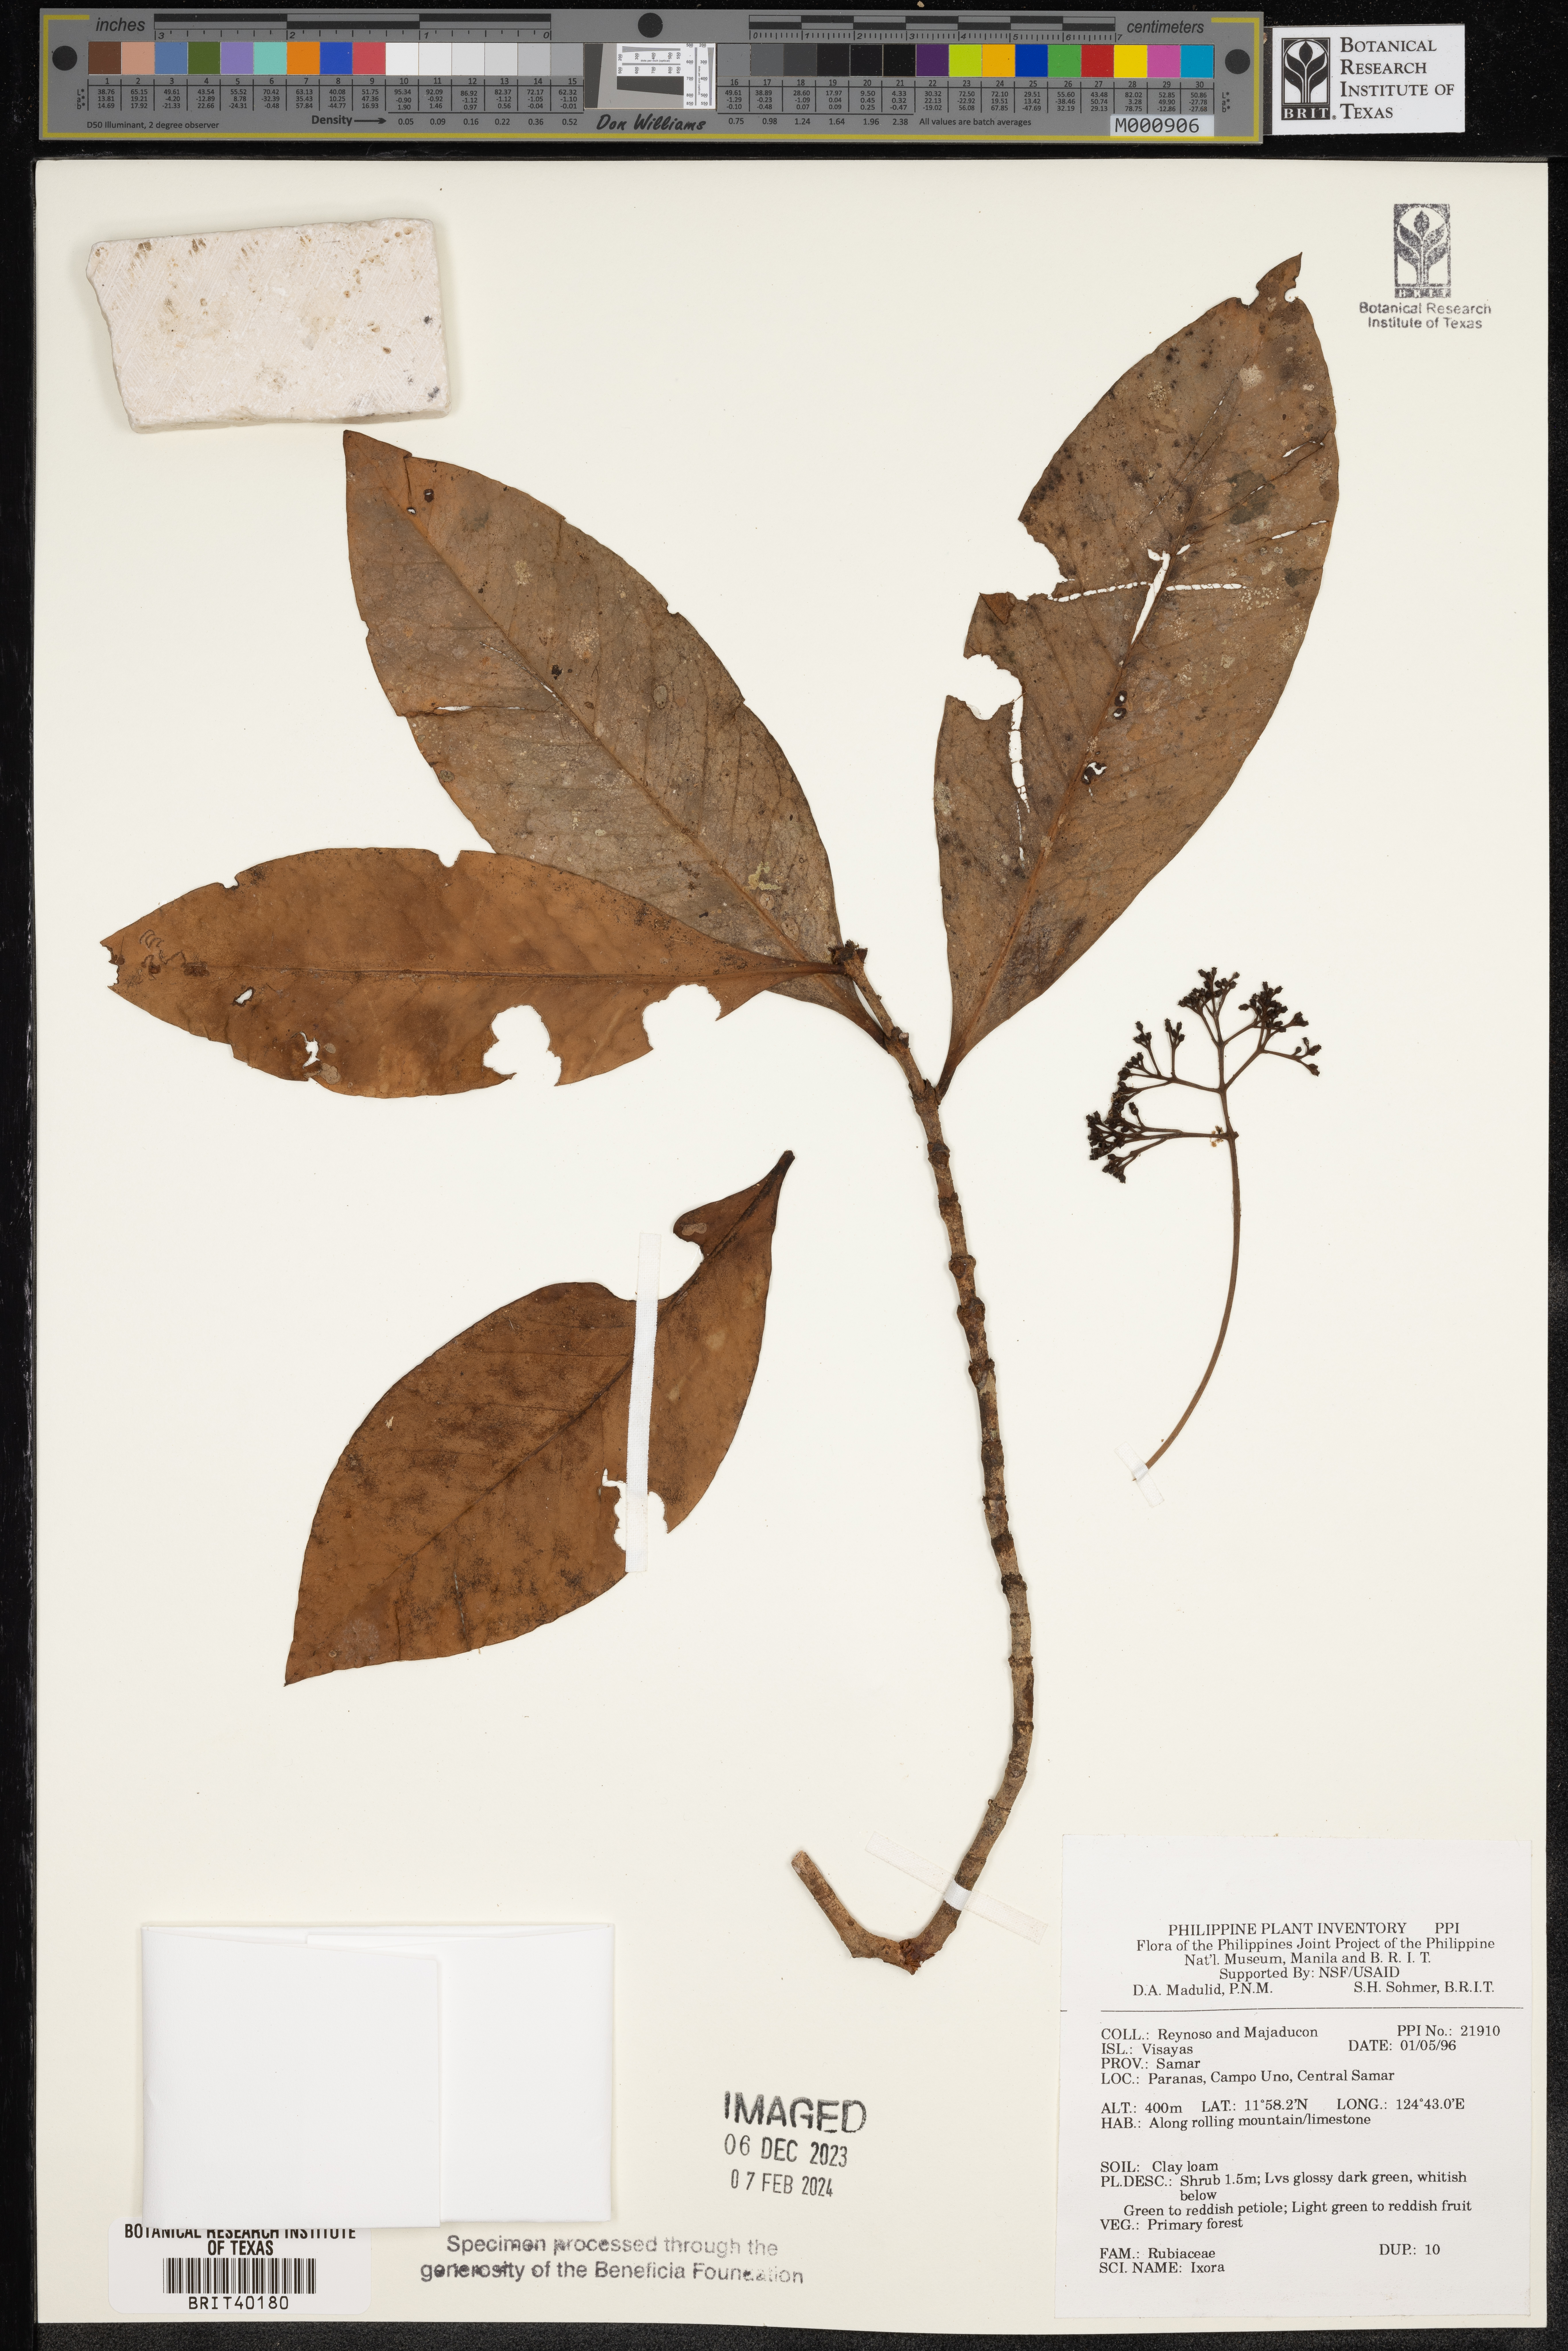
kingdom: Plantae
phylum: Tracheophyta
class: Magnoliopsida
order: Gentianales
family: Rubiaceae
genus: Ixora
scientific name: Ixora
